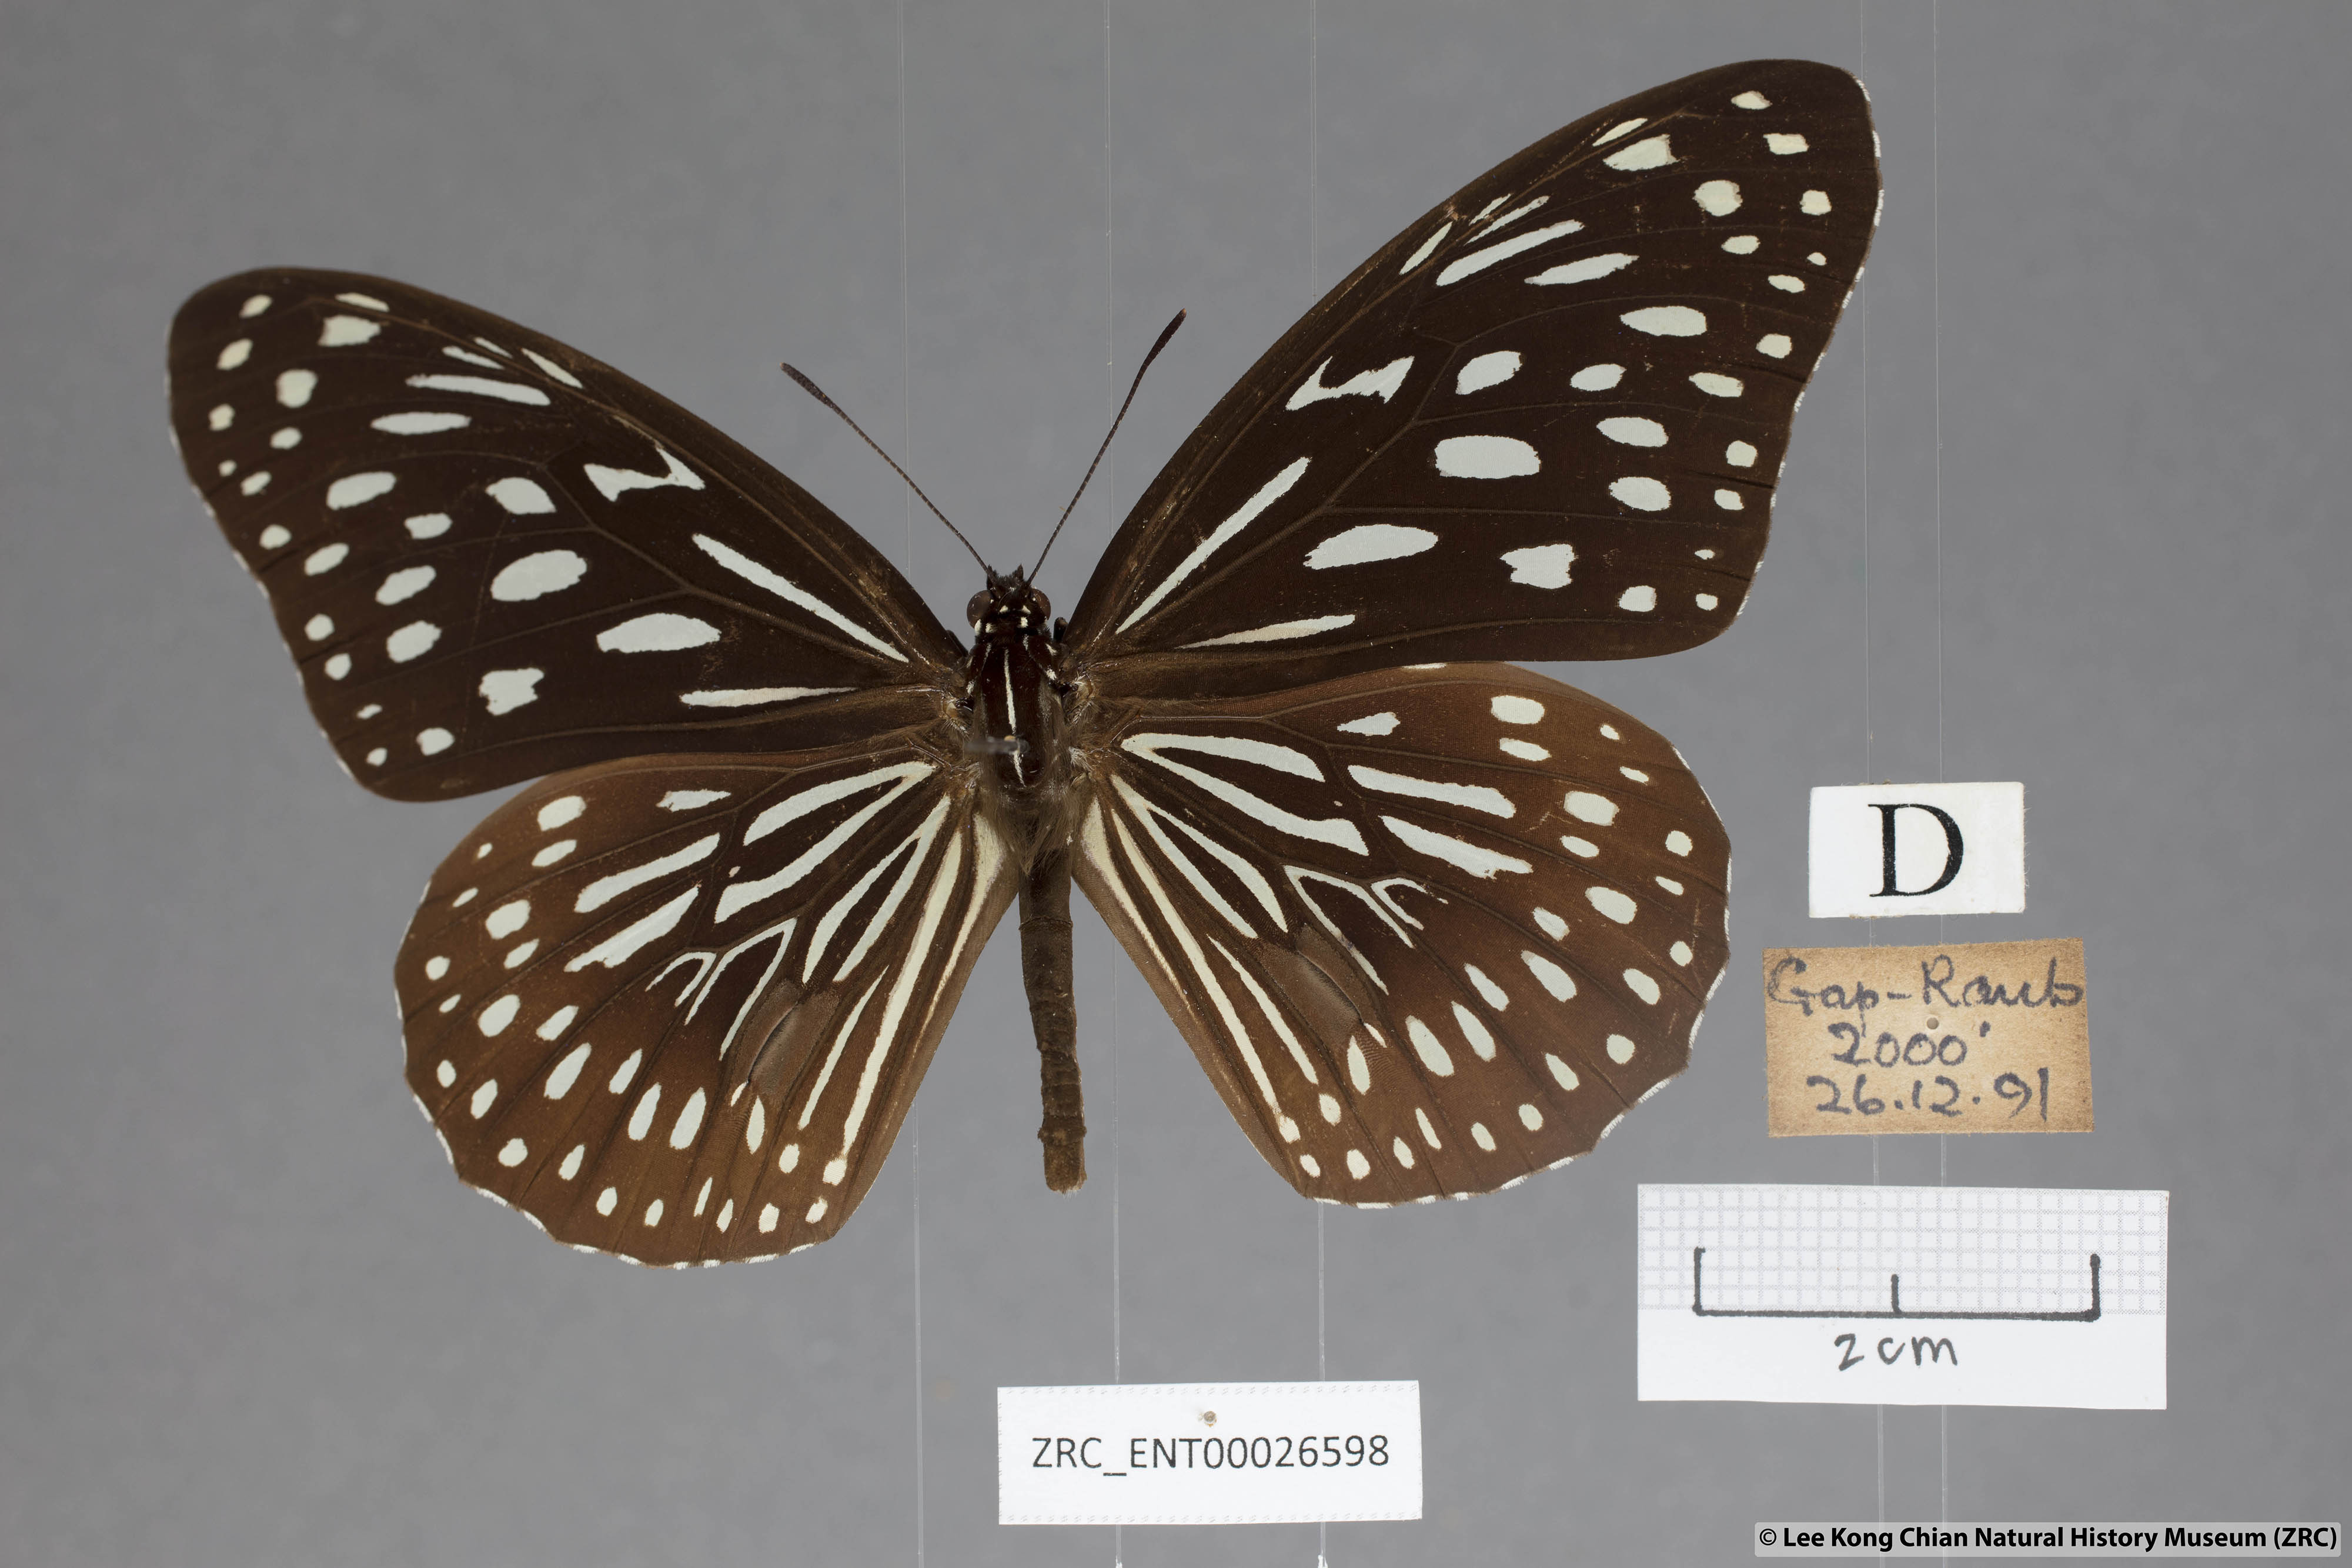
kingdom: Animalia
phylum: Arthropoda
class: Insecta
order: Lepidoptera
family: Nymphalidae
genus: Tirumala
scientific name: Tirumala septentrionis
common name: Dark blue tiger butterfly
